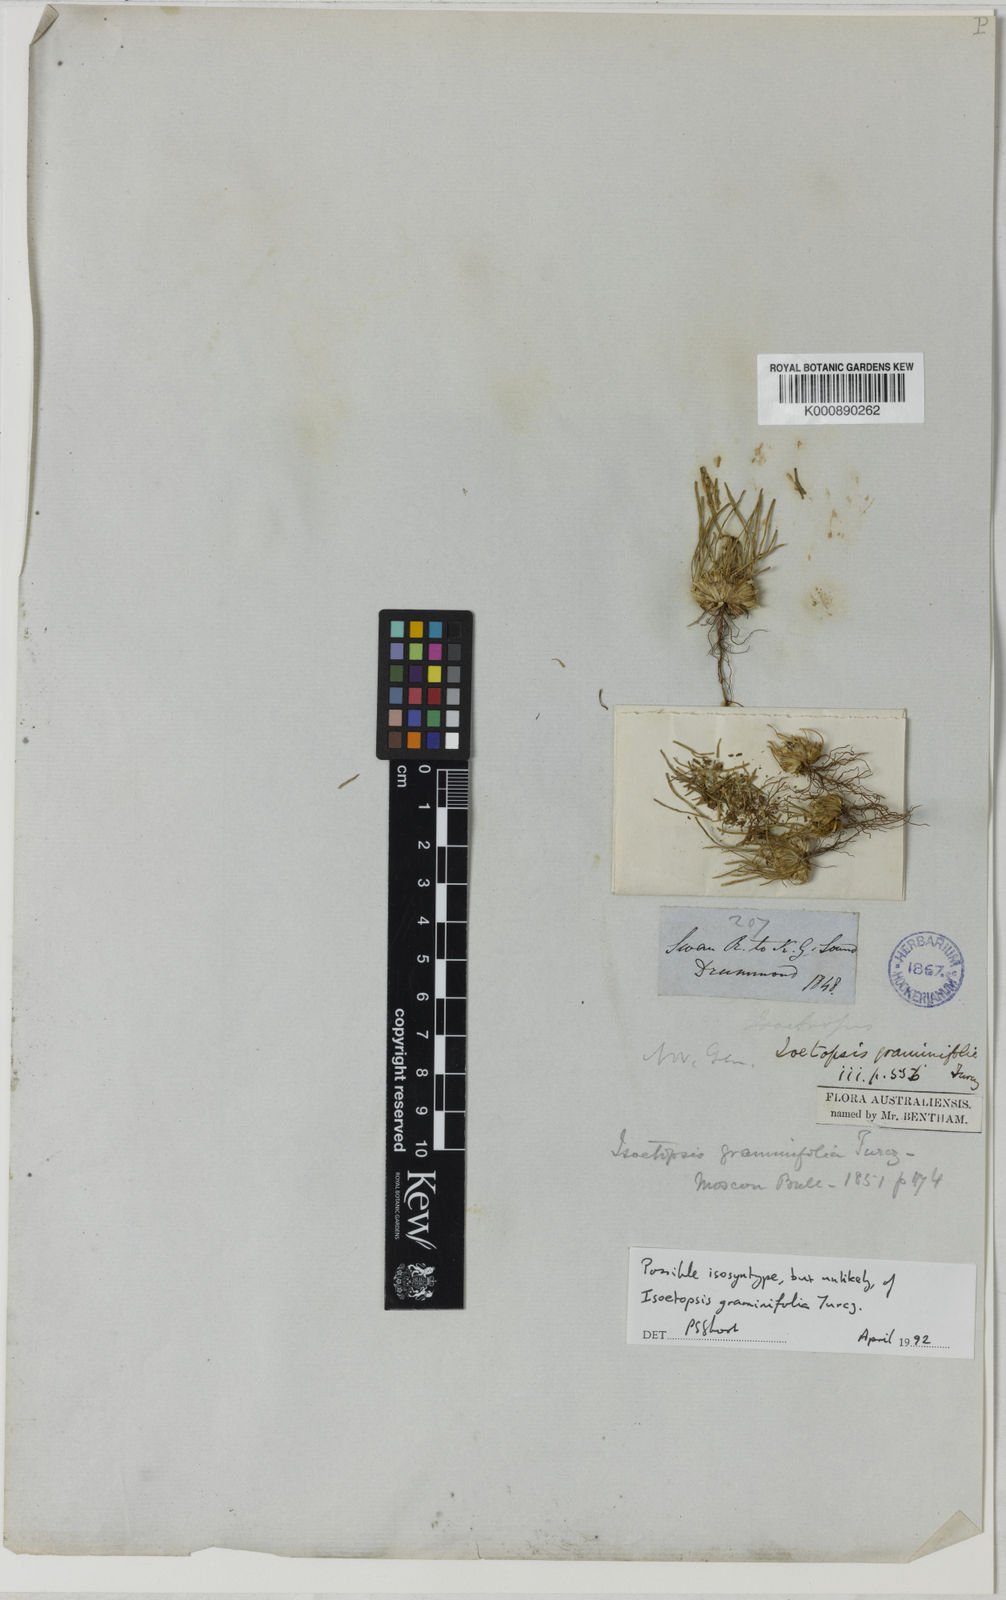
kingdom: Plantae
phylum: Tracheophyta
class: Magnoliopsida
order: Asterales
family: Asteraceae
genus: Isoetopsis
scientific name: Isoetopsis graminifolia
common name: Grass-cushion
